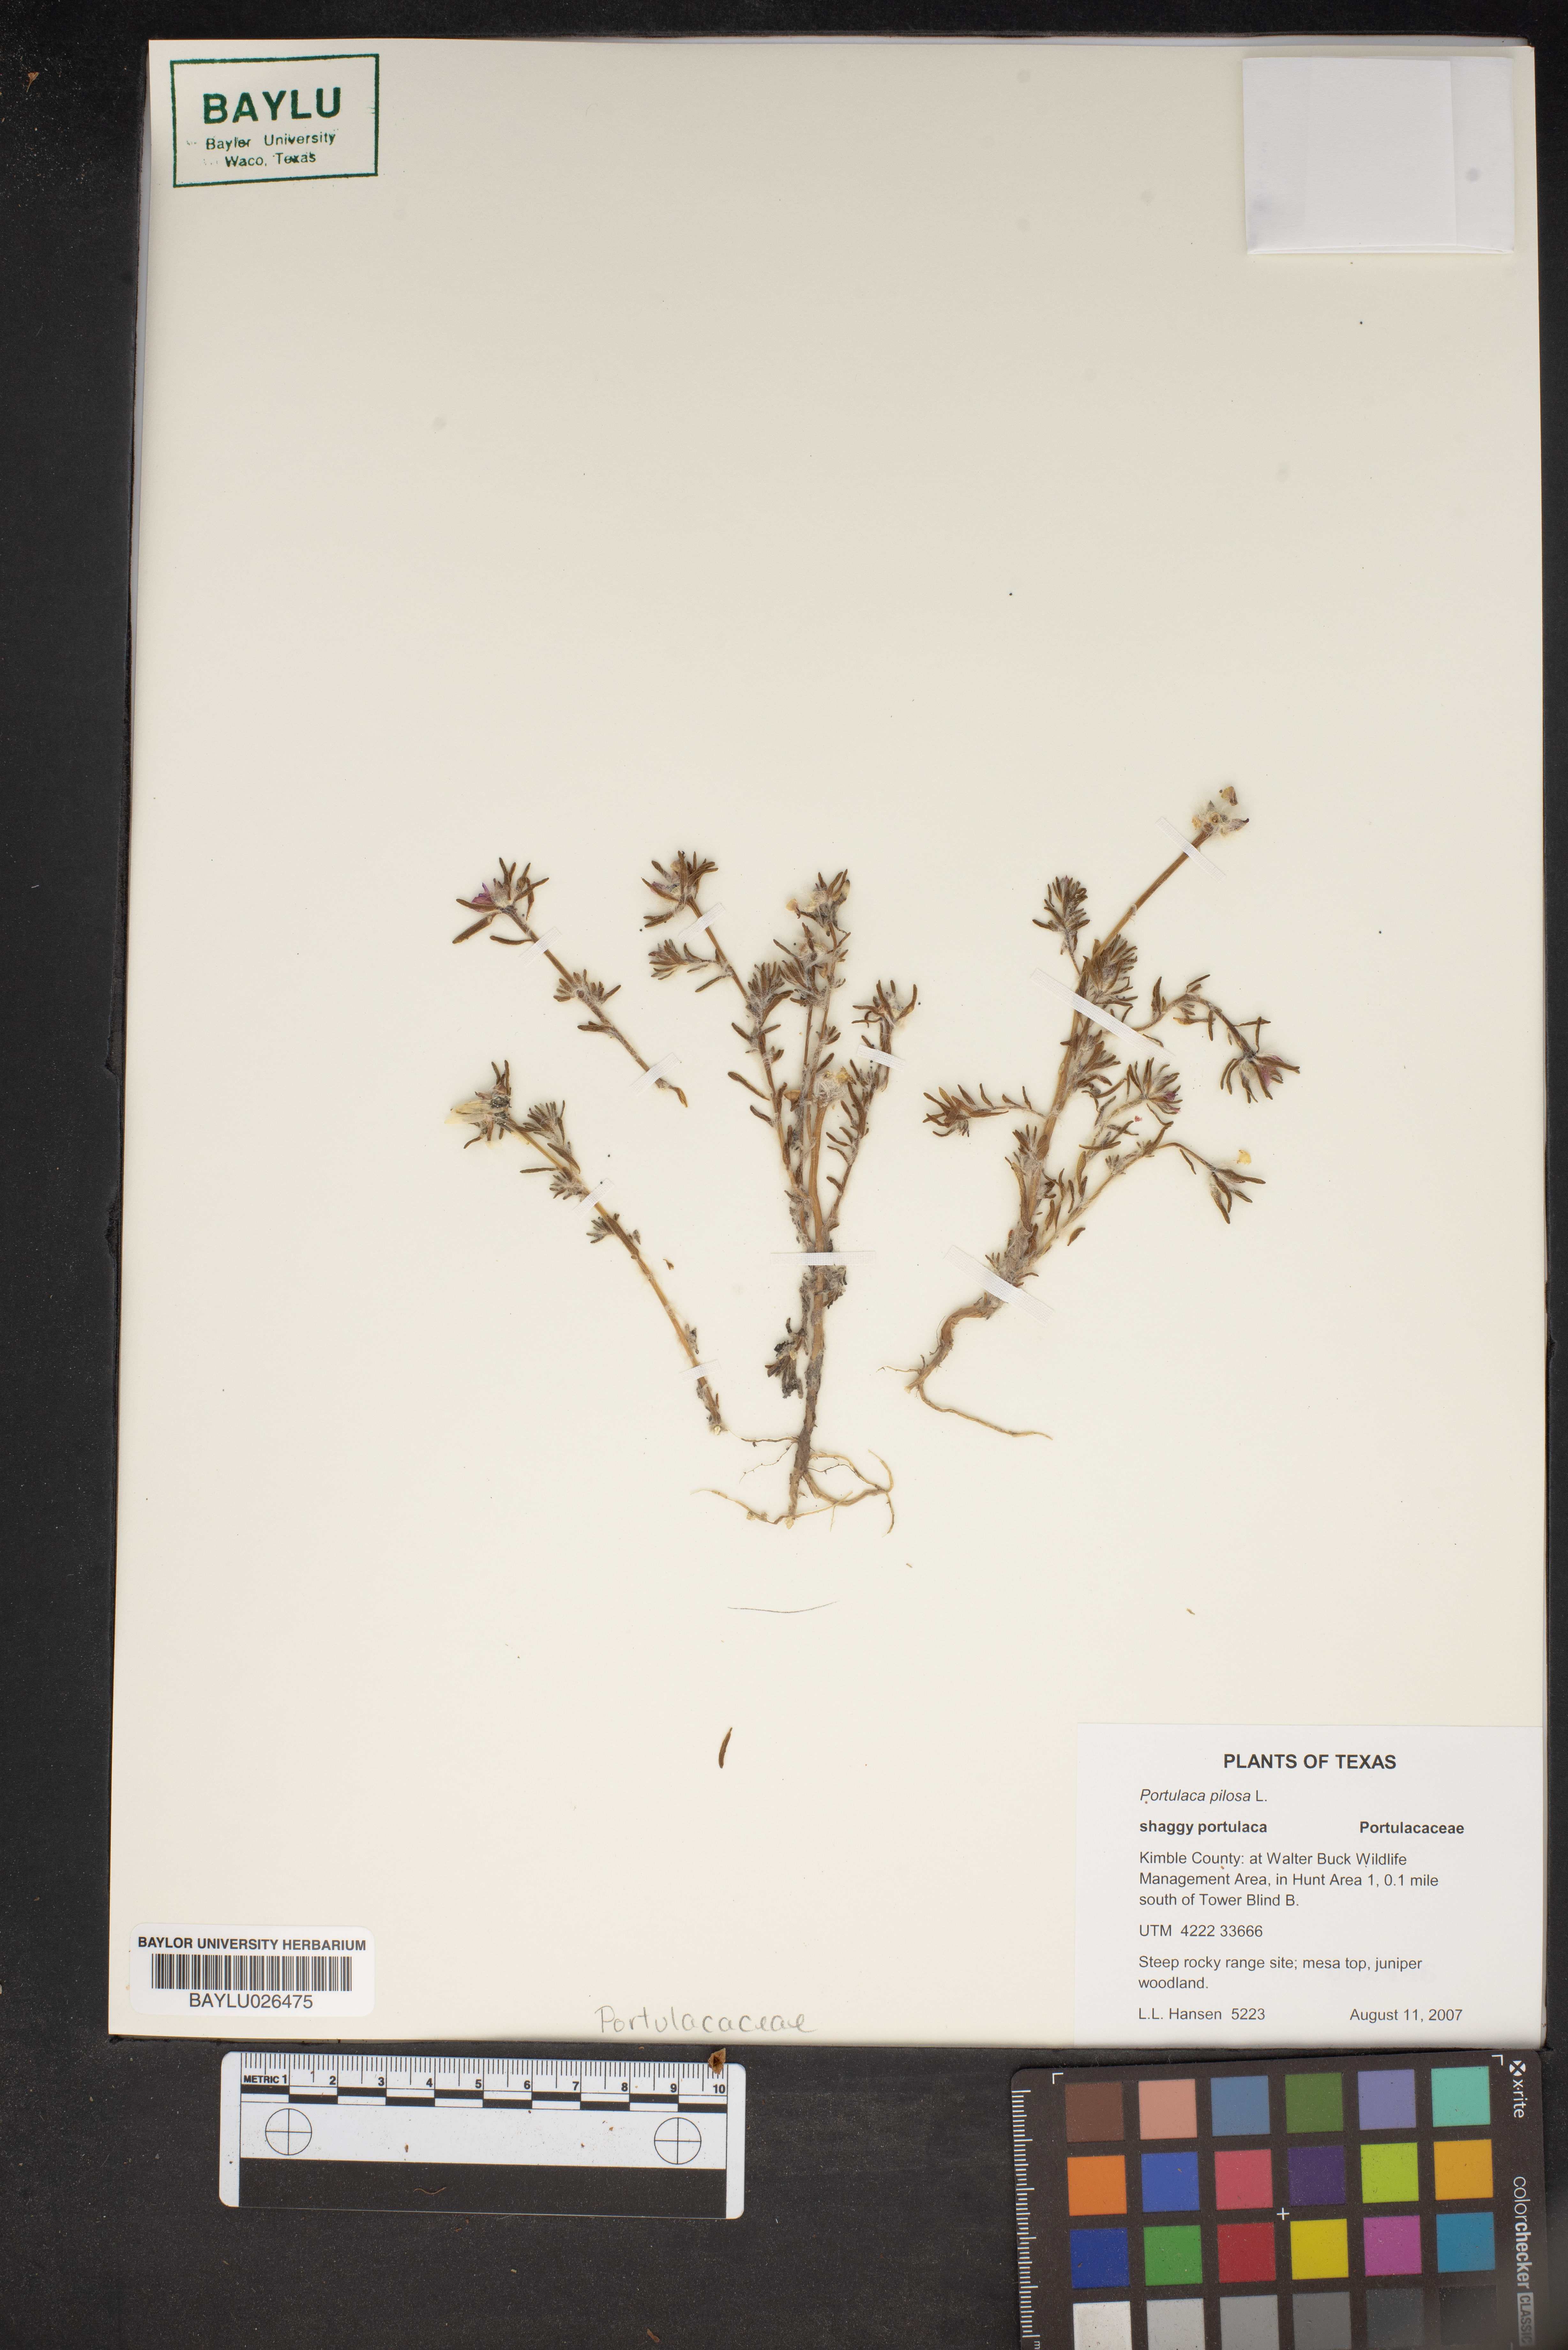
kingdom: Plantae
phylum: Tracheophyta
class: Magnoliopsida
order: Caryophyllales
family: Portulacaceae
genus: Portulaca
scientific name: Portulaca pilosa
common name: Kiss me quick
